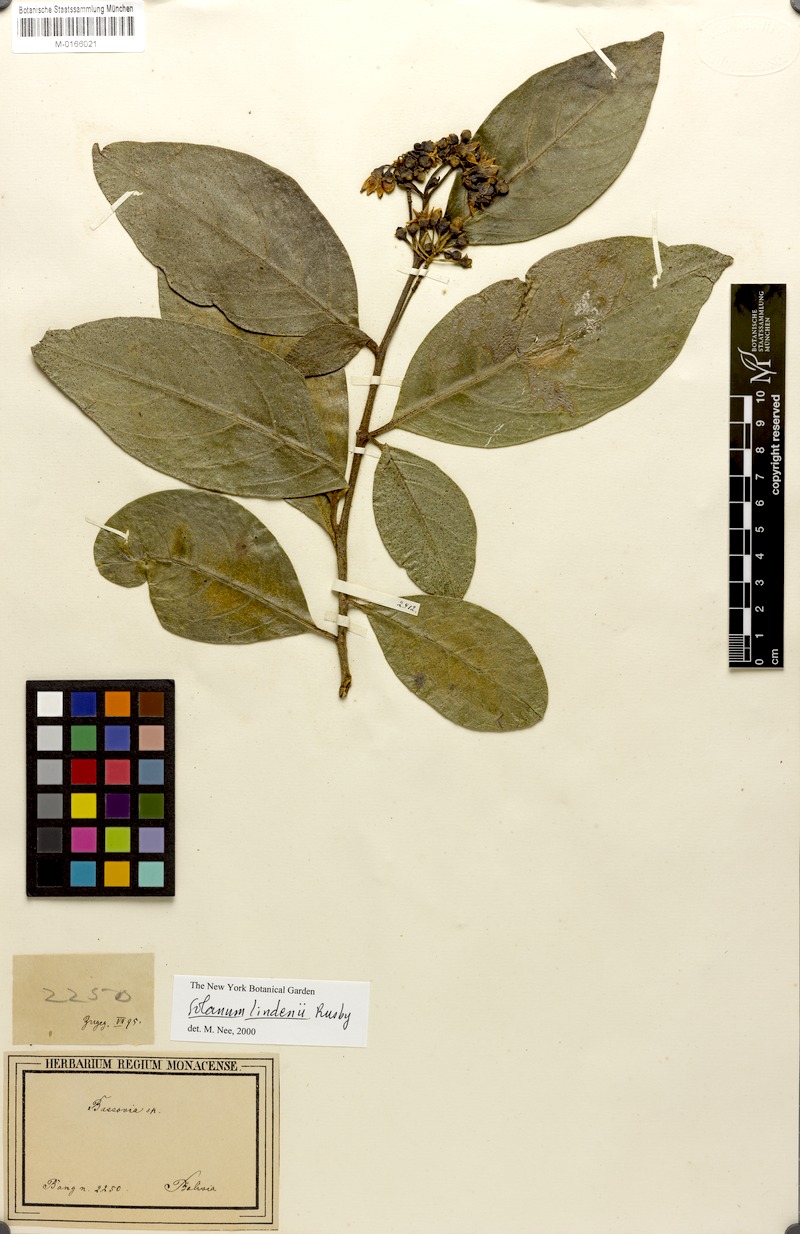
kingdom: Plantae
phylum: Tracheophyta
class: Magnoliopsida
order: Solanales
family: Solanaceae
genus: Solanum
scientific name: Solanum lindenii
